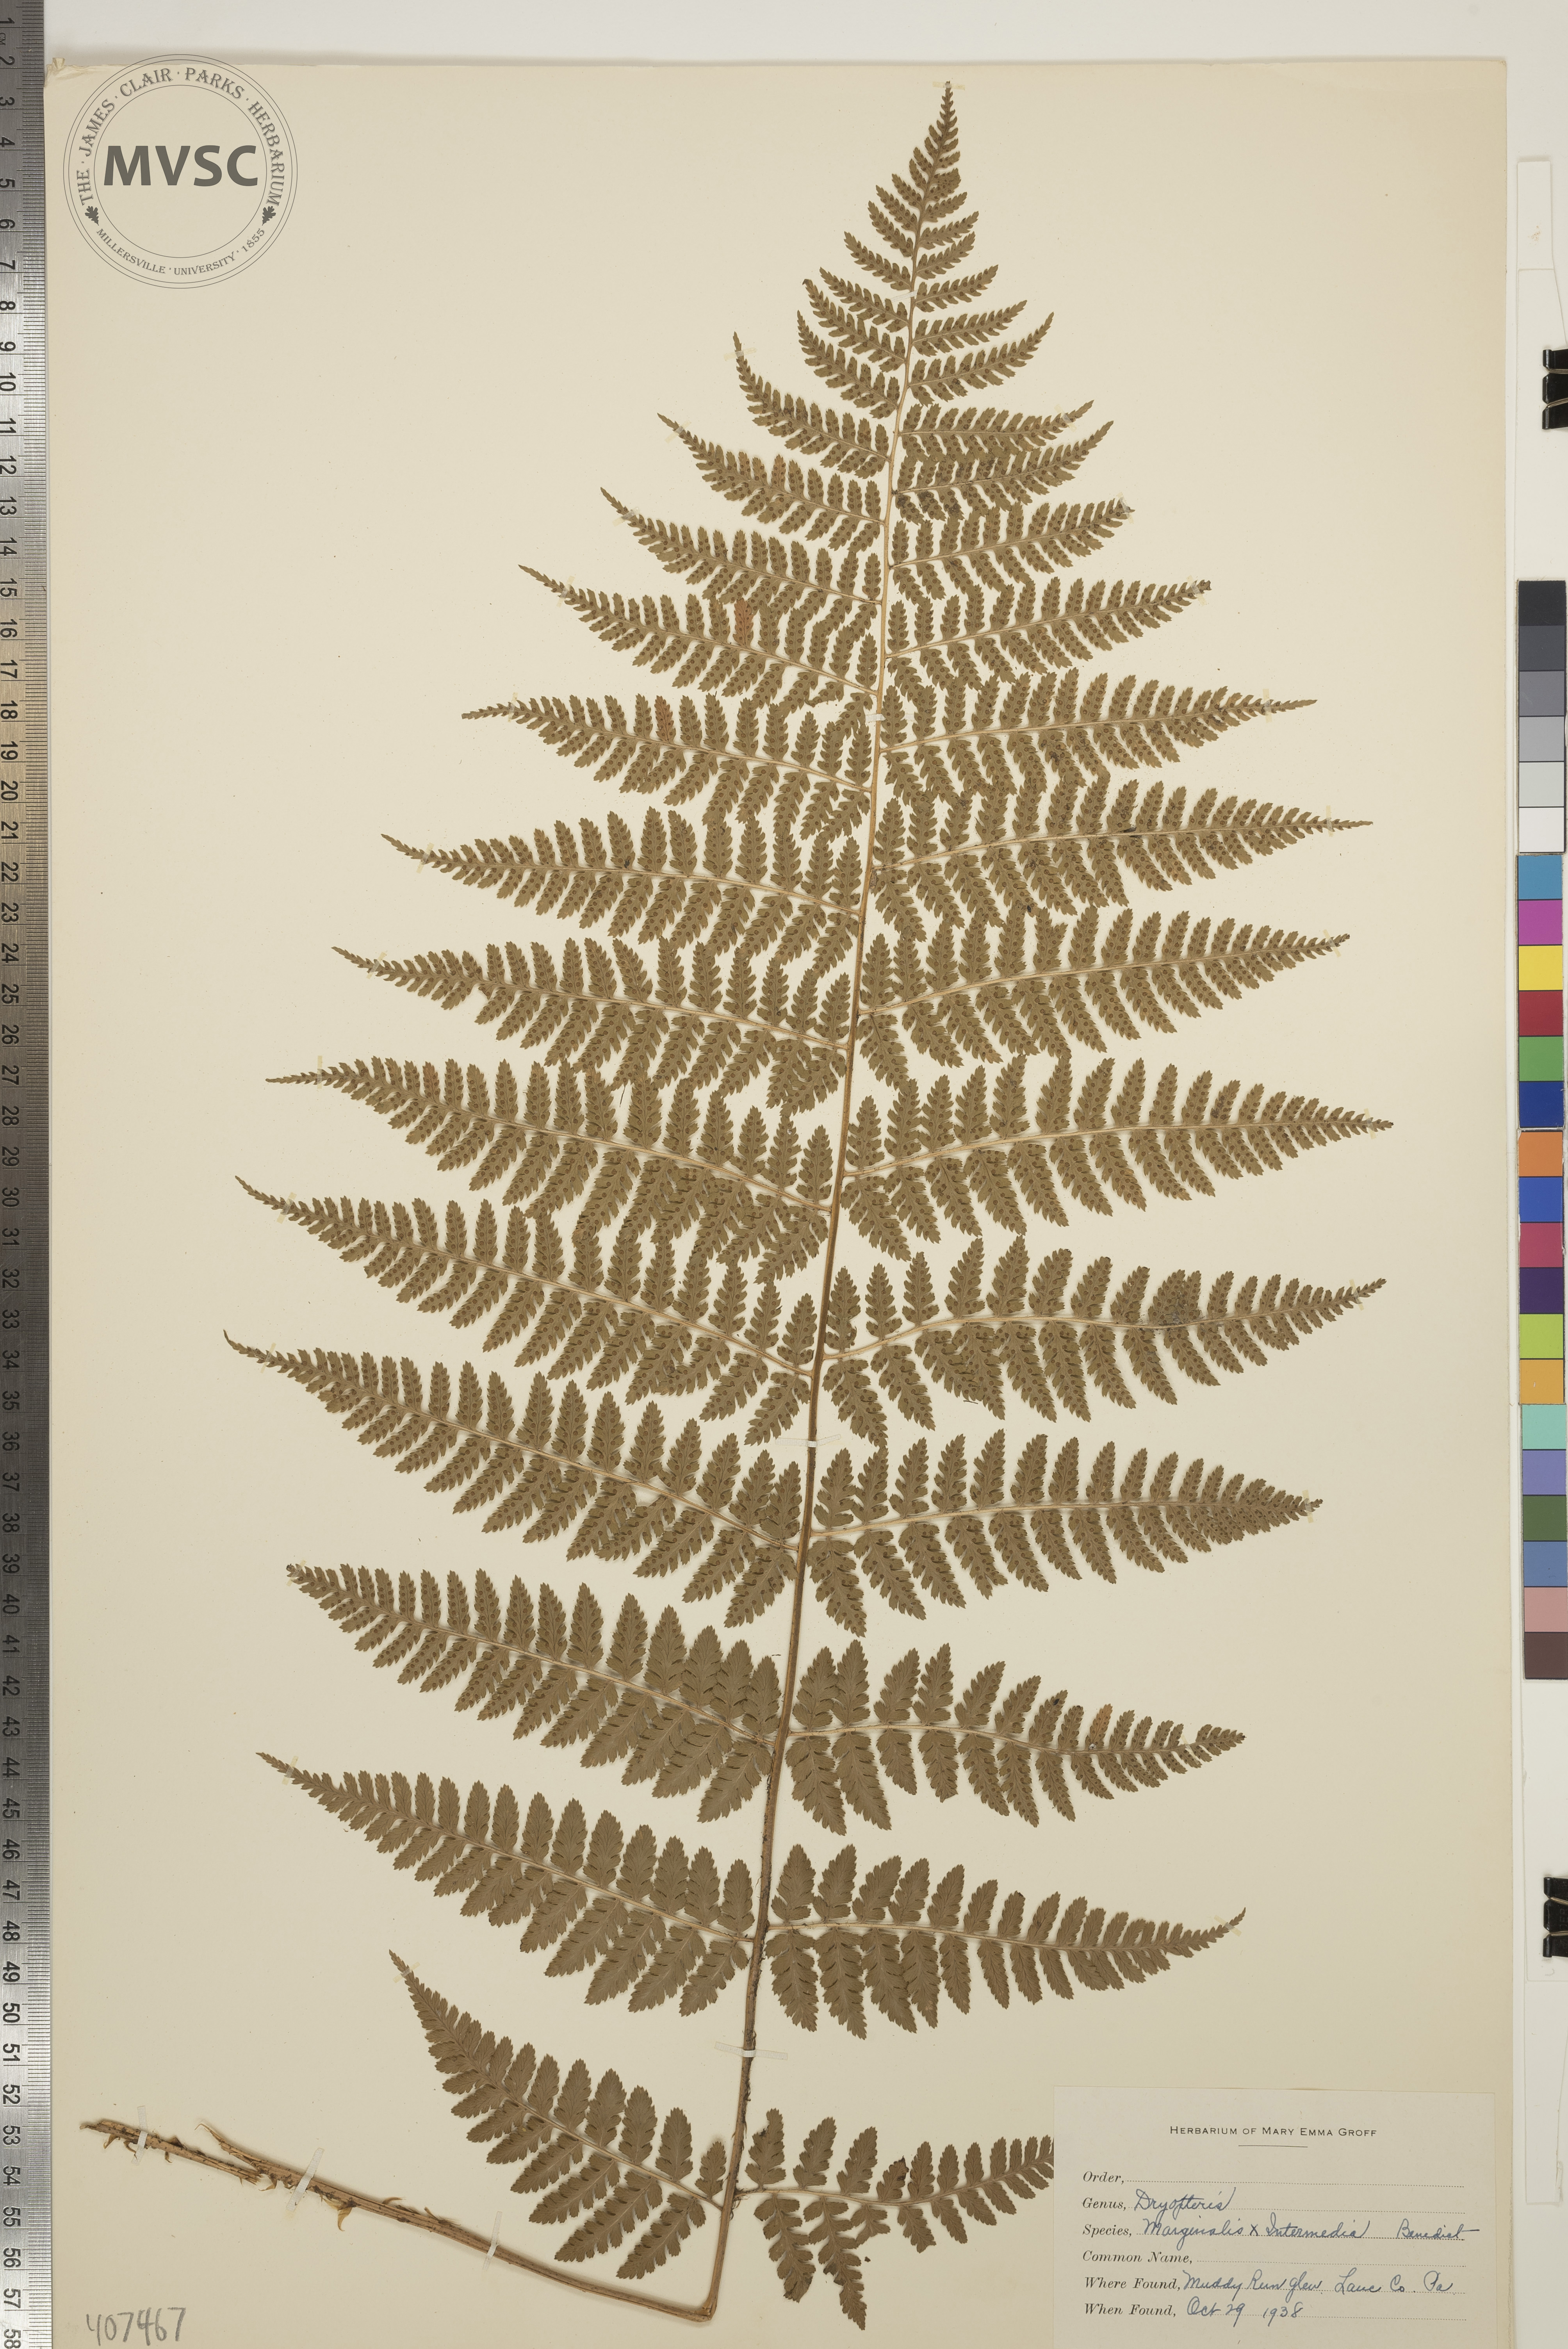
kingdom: Plantae
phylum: Tracheophyta
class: Polypodiopsida
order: Polypodiales
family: Dryopteridaceae
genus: Dryopteris
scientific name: Dryopteris
